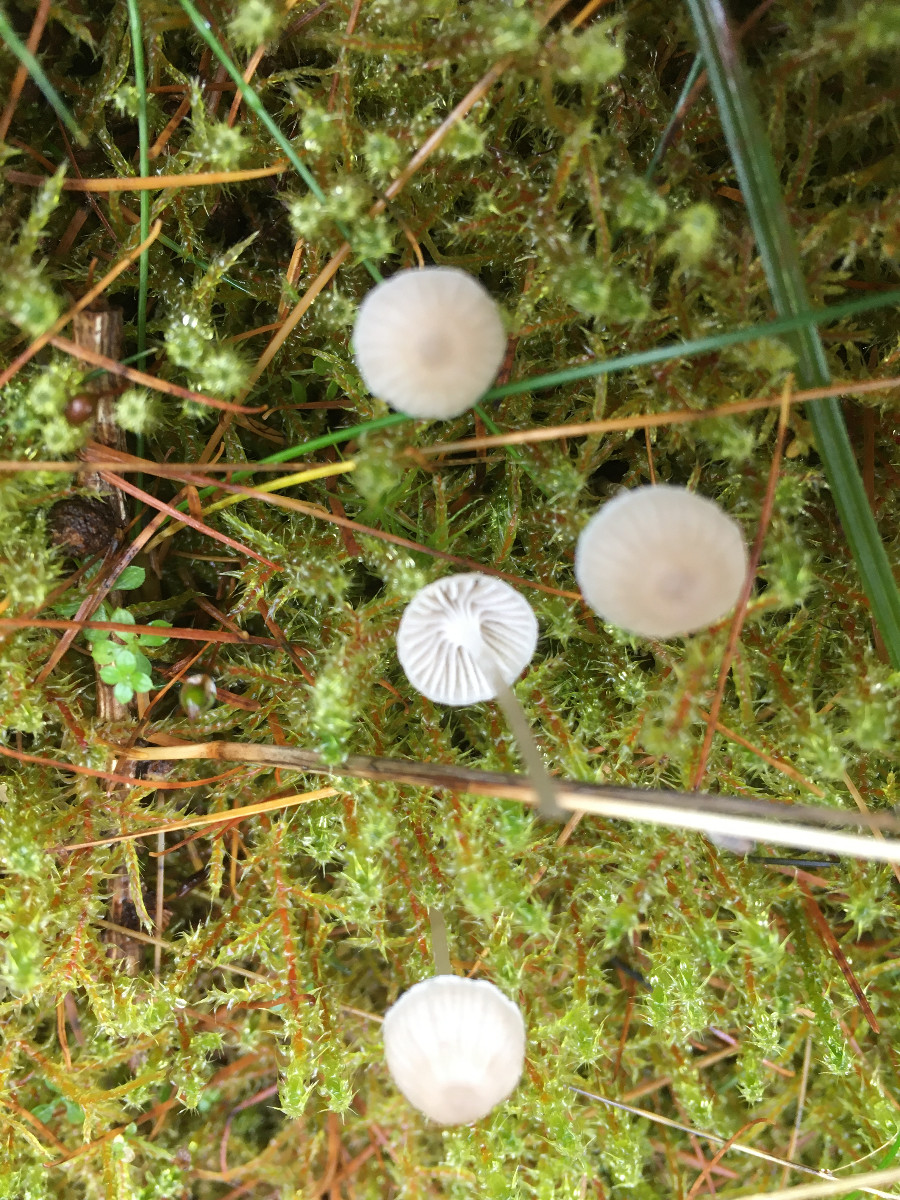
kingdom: Fungi
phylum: Basidiomycota
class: Agaricomycetes
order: Agaricales
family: Mycenaceae
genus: Mycena
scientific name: Mycena cinerella
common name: mel-huesvamp
